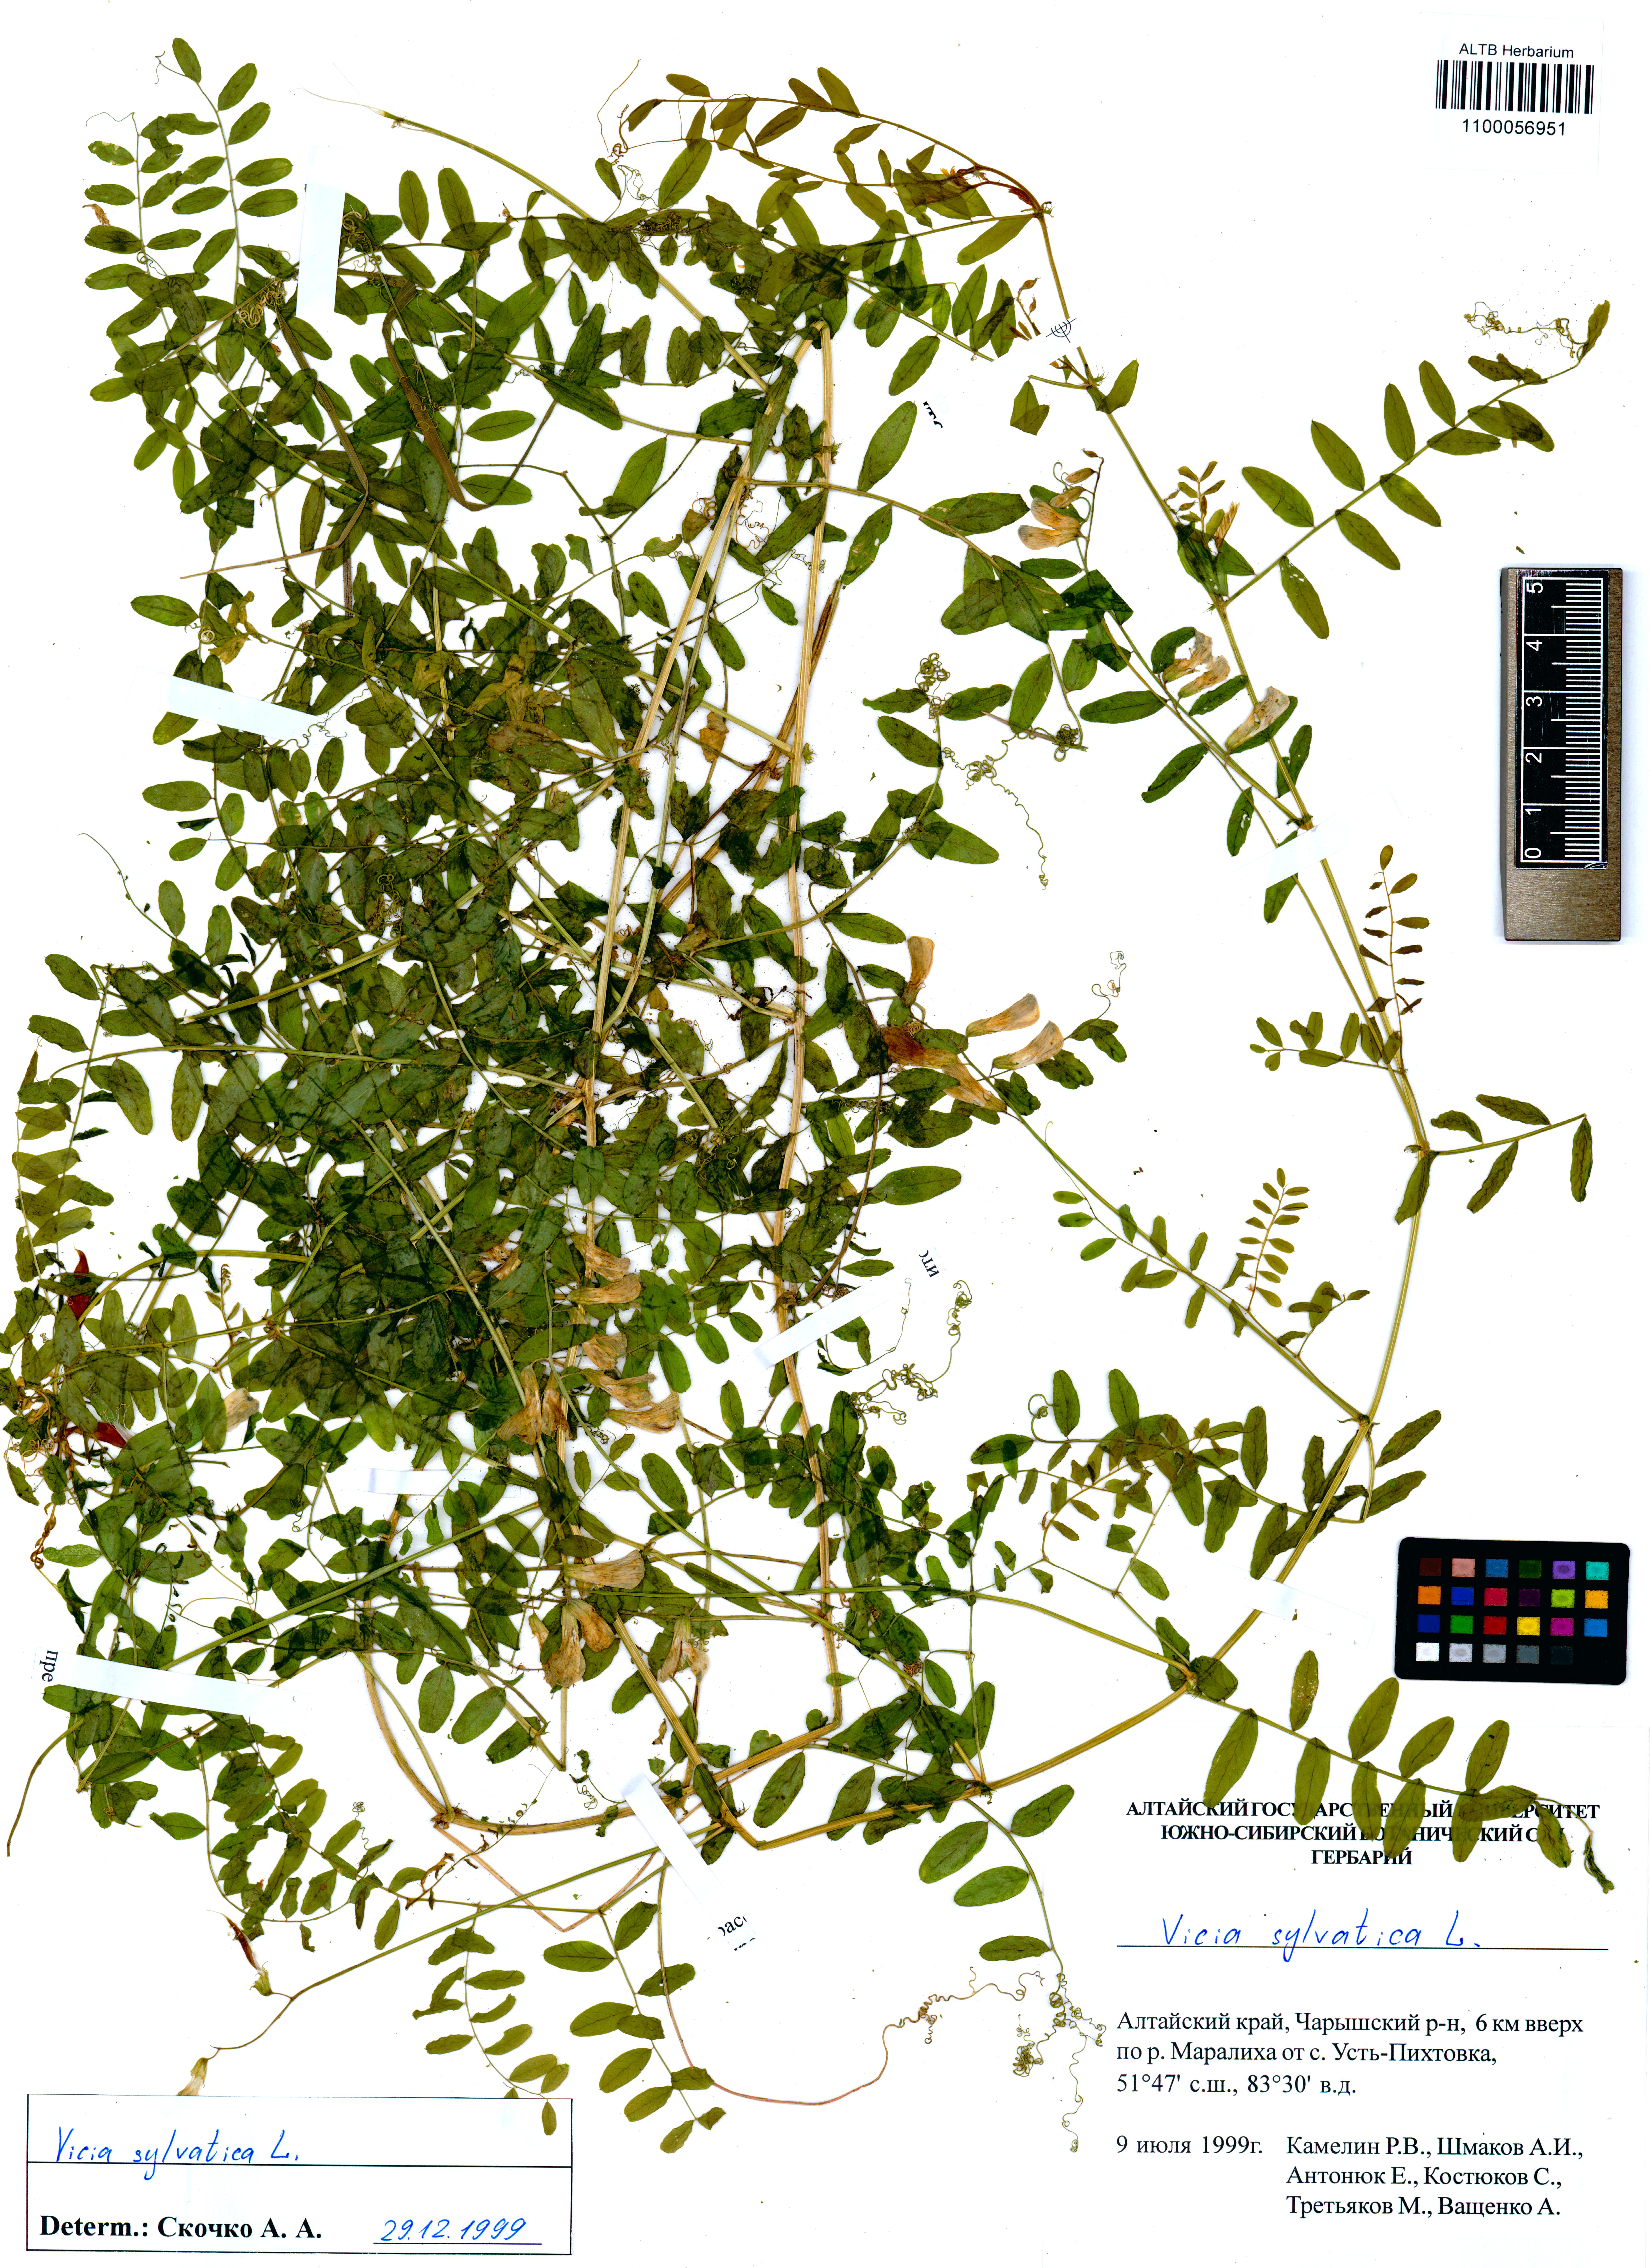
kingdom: Plantae
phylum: Tracheophyta
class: Magnoliopsida
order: Fabales
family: Fabaceae
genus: Vicia
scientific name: Vicia sylvatica
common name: Wood vetch
